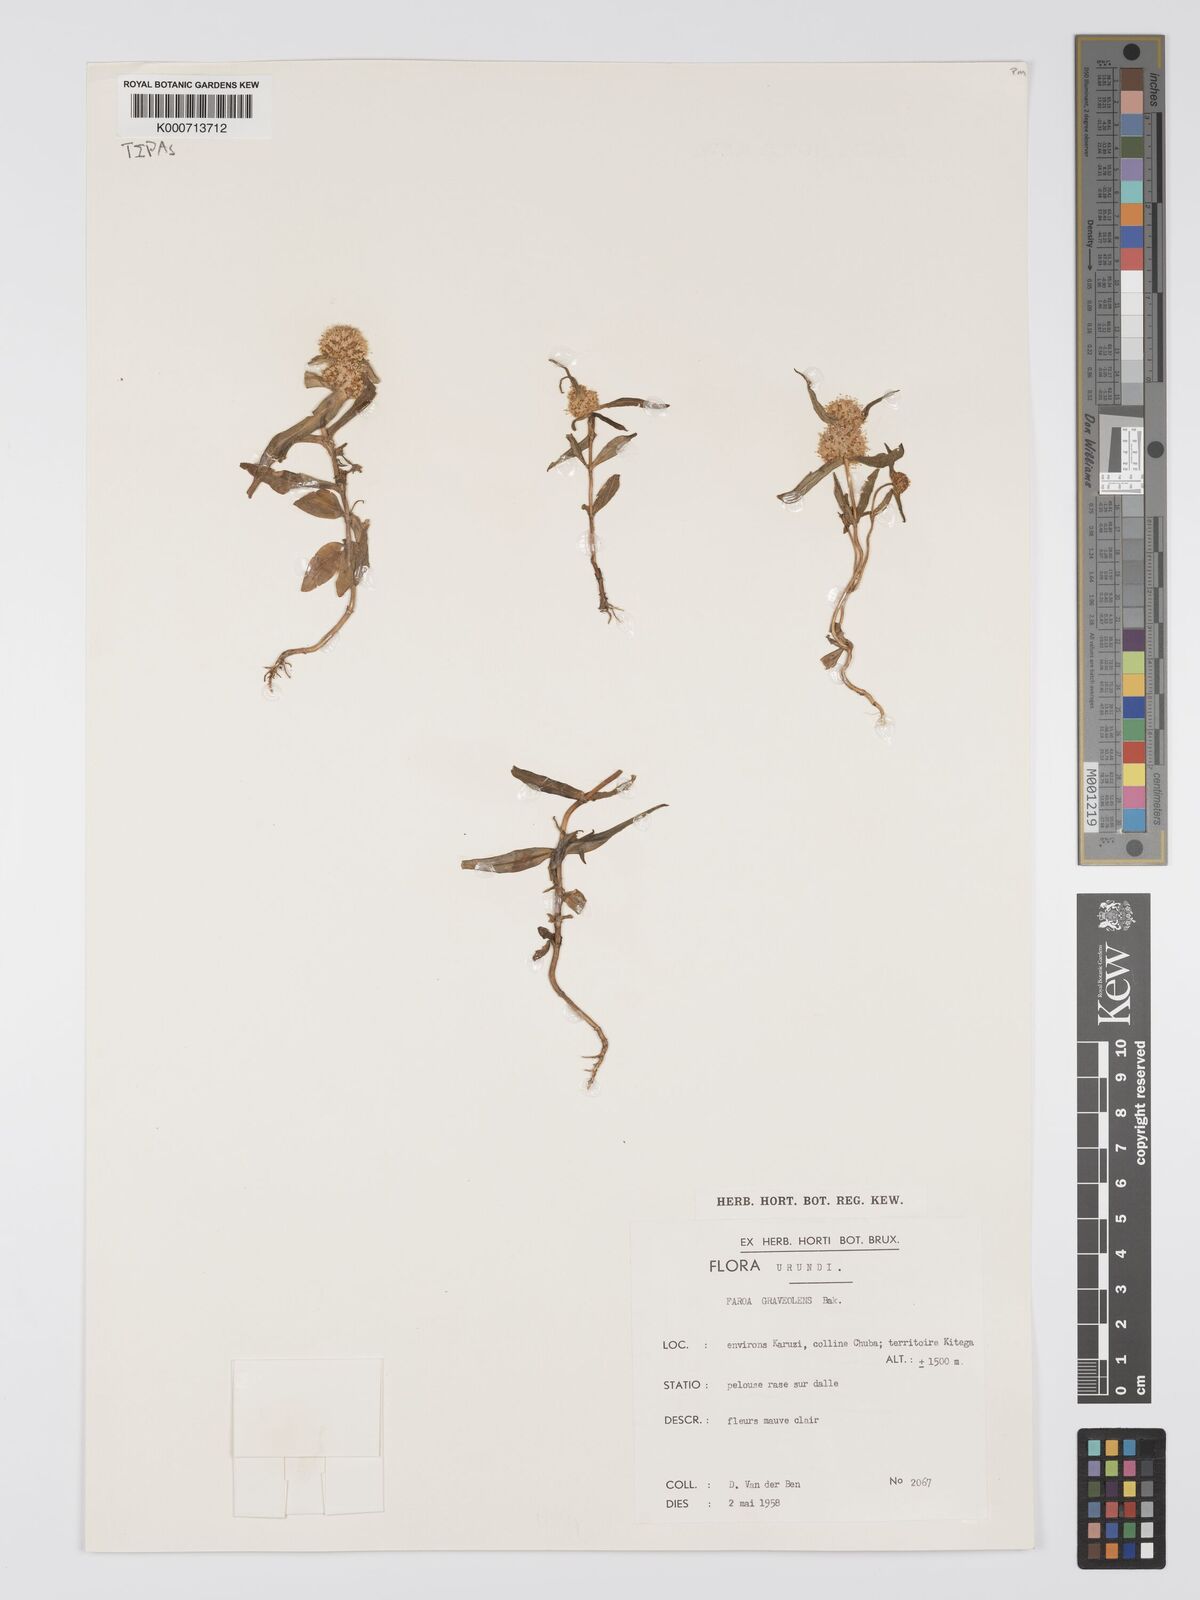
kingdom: Plantae
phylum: Tracheophyta
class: Magnoliopsida
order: Gentianales
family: Gentianaceae
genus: Faroa
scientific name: Faroa graveolens
